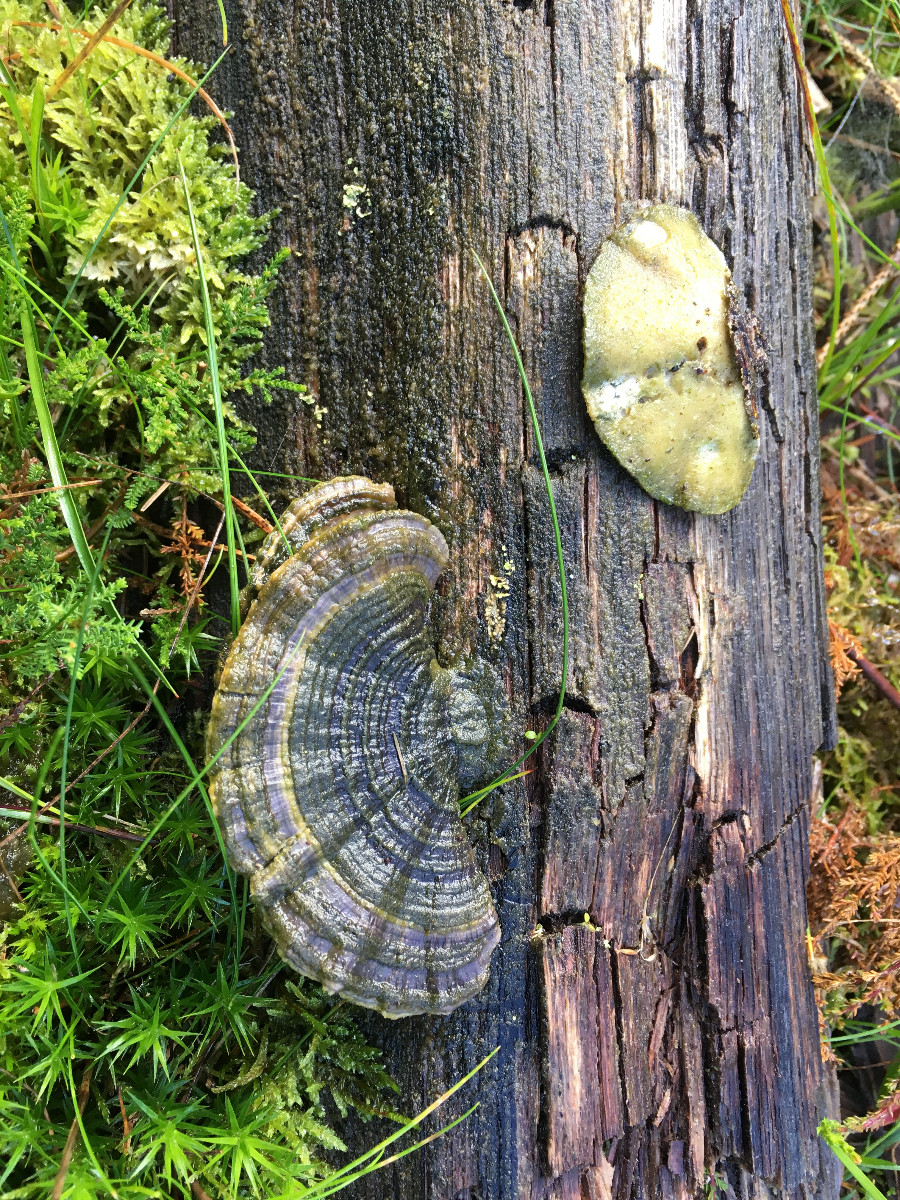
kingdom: Fungi
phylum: Basidiomycota
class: Agaricomycetes
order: Polyporales
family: Polyporaceae
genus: Trametes
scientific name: Trametes versicolor
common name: broget læderporesvamp
